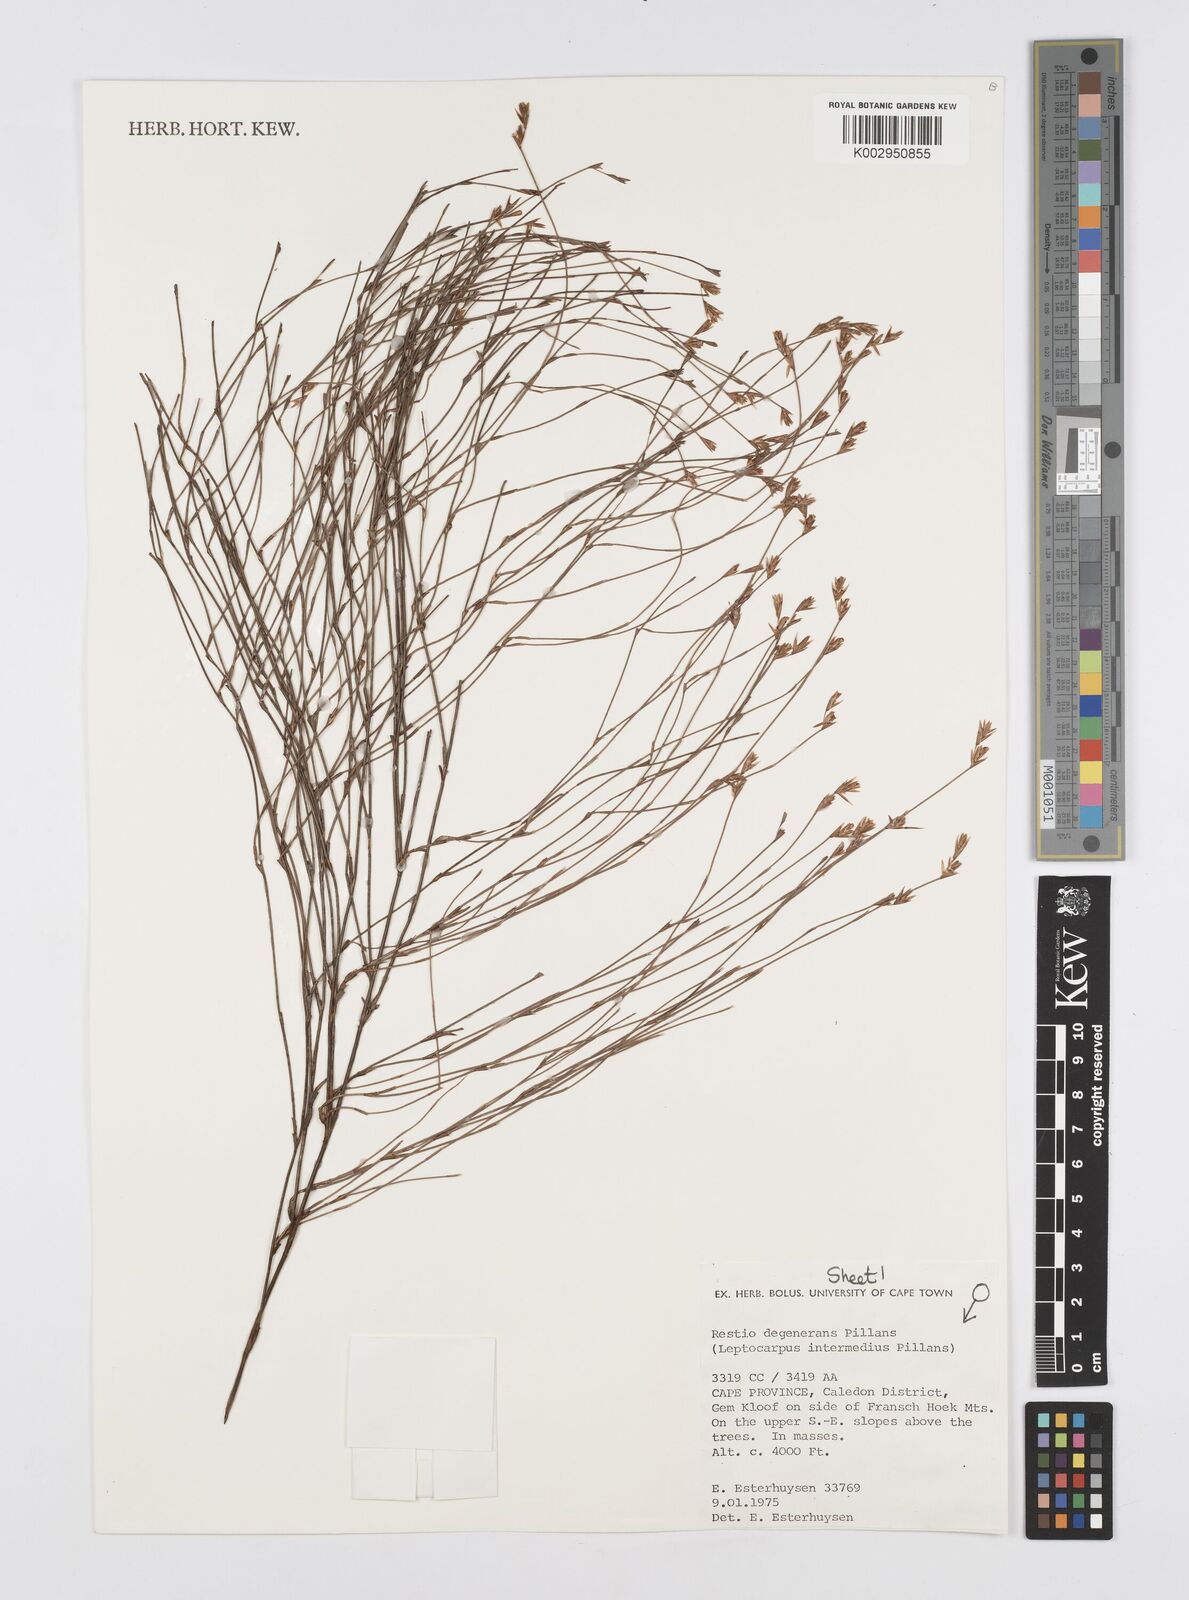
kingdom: Plantae
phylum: Tracheophyta
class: Liliopsida
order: Poales
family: Restionaceae
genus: Restio
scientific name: Restio degenerans
